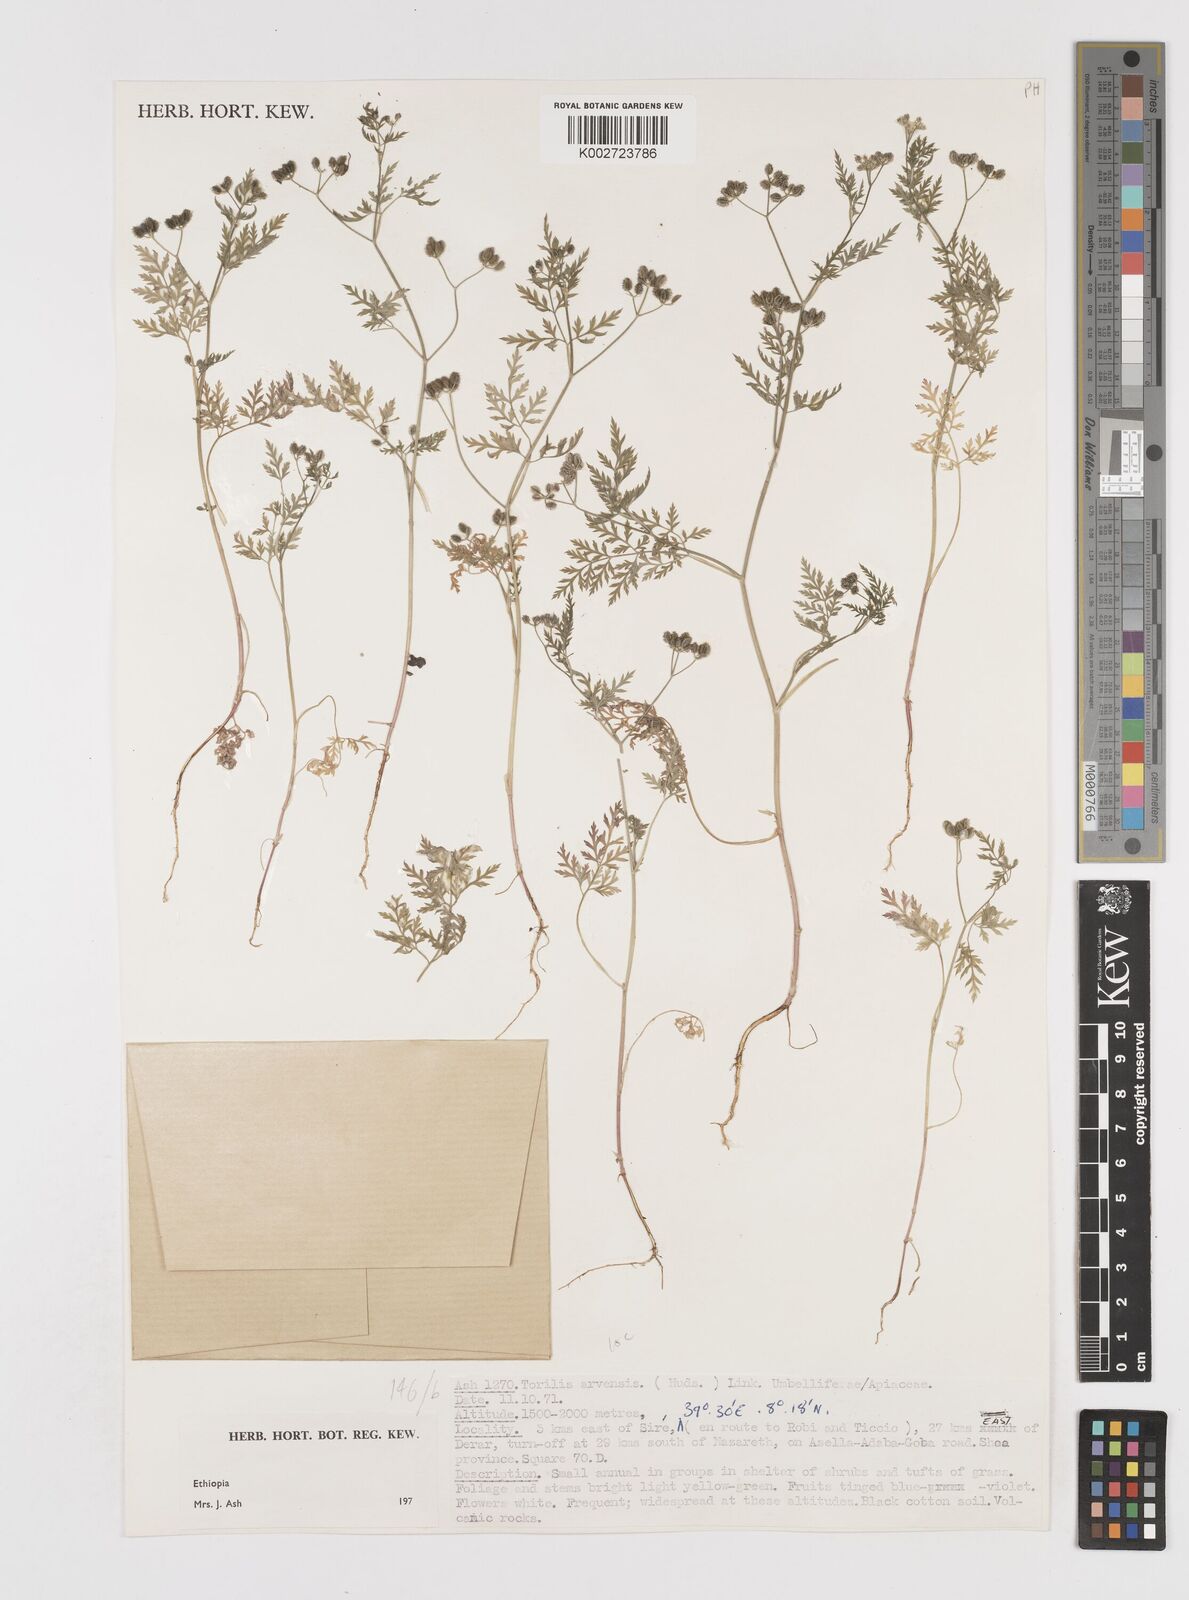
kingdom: Plantae
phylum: Tracheophyta
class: Magnoliopsida
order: Apiales
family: Apiaceae
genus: Torilis
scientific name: Torilis arvensis
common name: Spreading hedge-parsley
